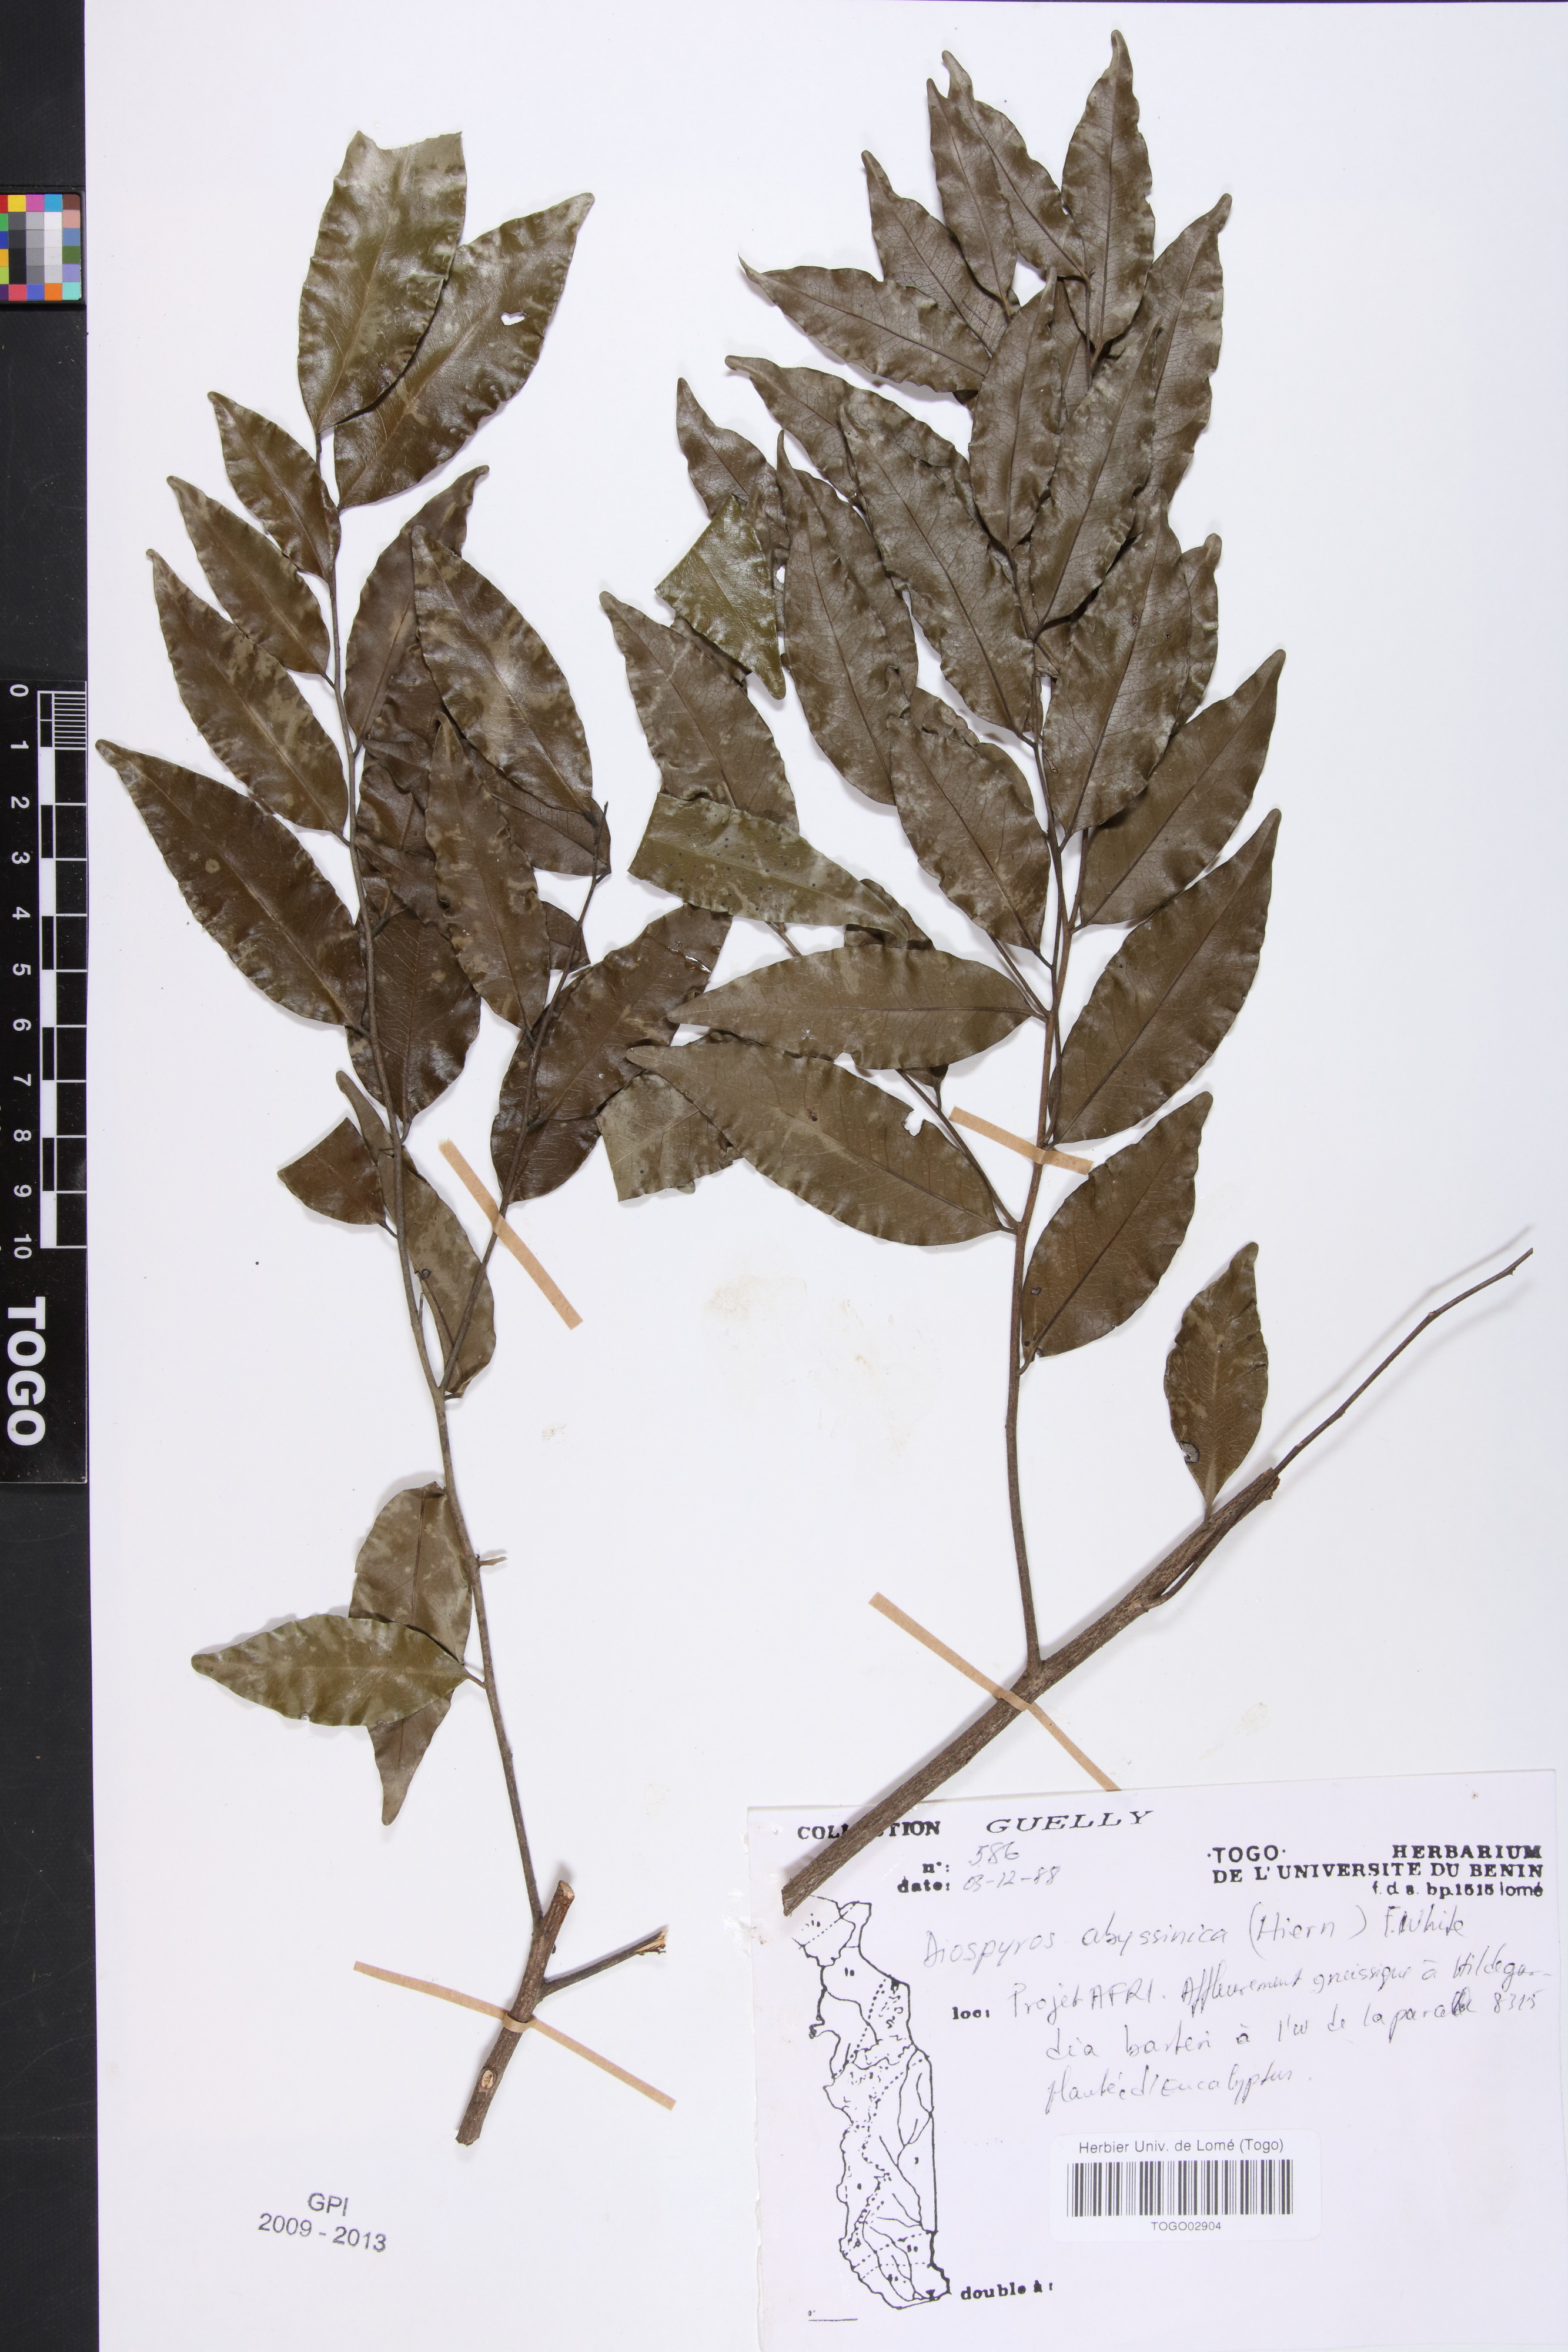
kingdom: Plantae
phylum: Tracheophyta
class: Magnoliopsida
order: Ericales
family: Ebenaceae
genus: Diospyros
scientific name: Diospyros abyssinica
